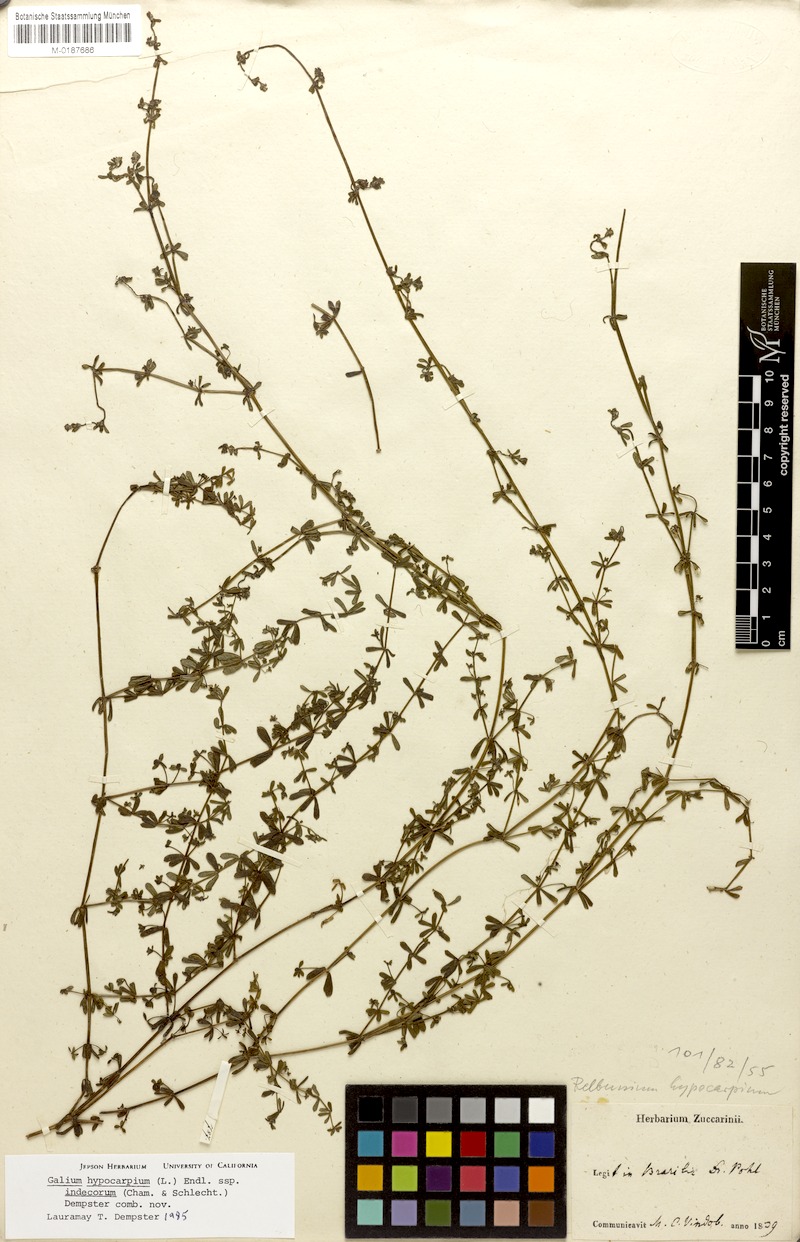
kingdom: Plantae
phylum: Tracheophyta
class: Magnoliopsida
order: Gentianales
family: Rubiaceae
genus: Galium
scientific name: Galium hypocarpium
